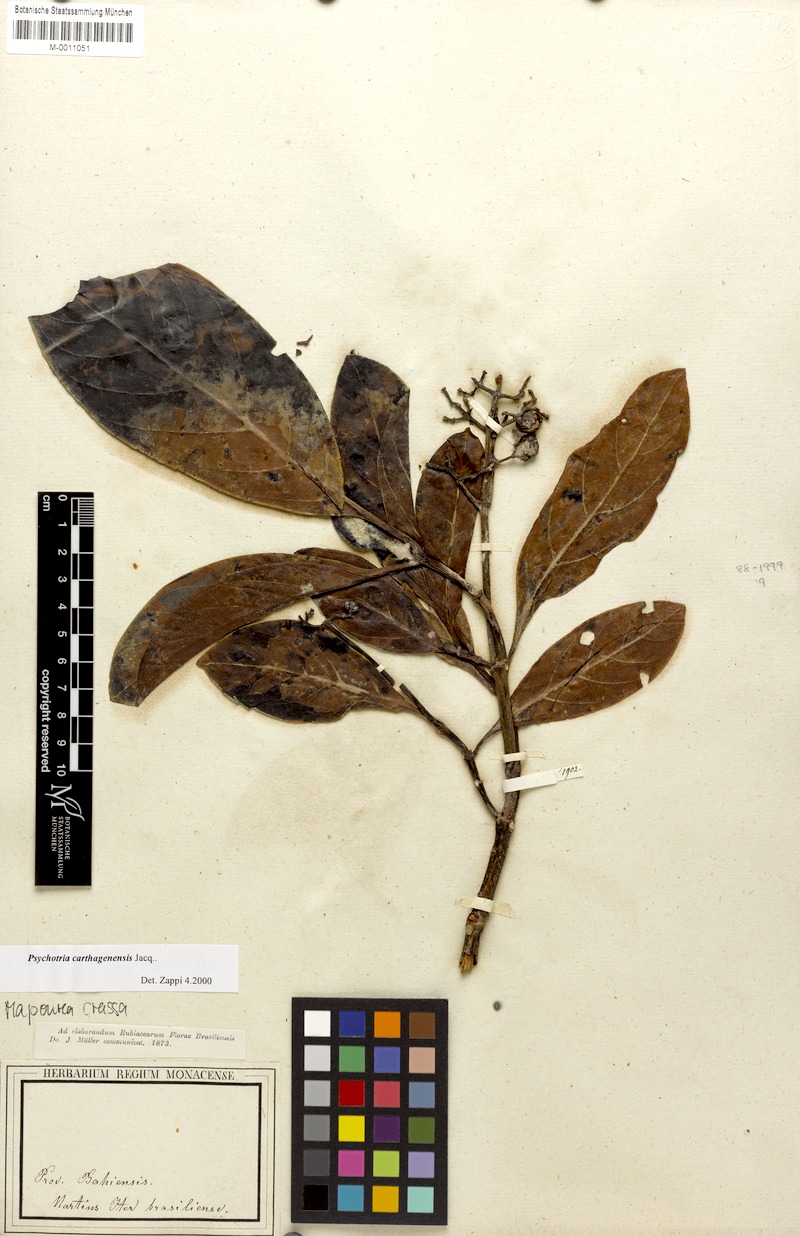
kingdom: Plantae
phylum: Tracheophyta
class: Magnoliopsida
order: Gentianales
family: Rubiaceae
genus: Psychotria
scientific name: Psychotria carthagenensis
